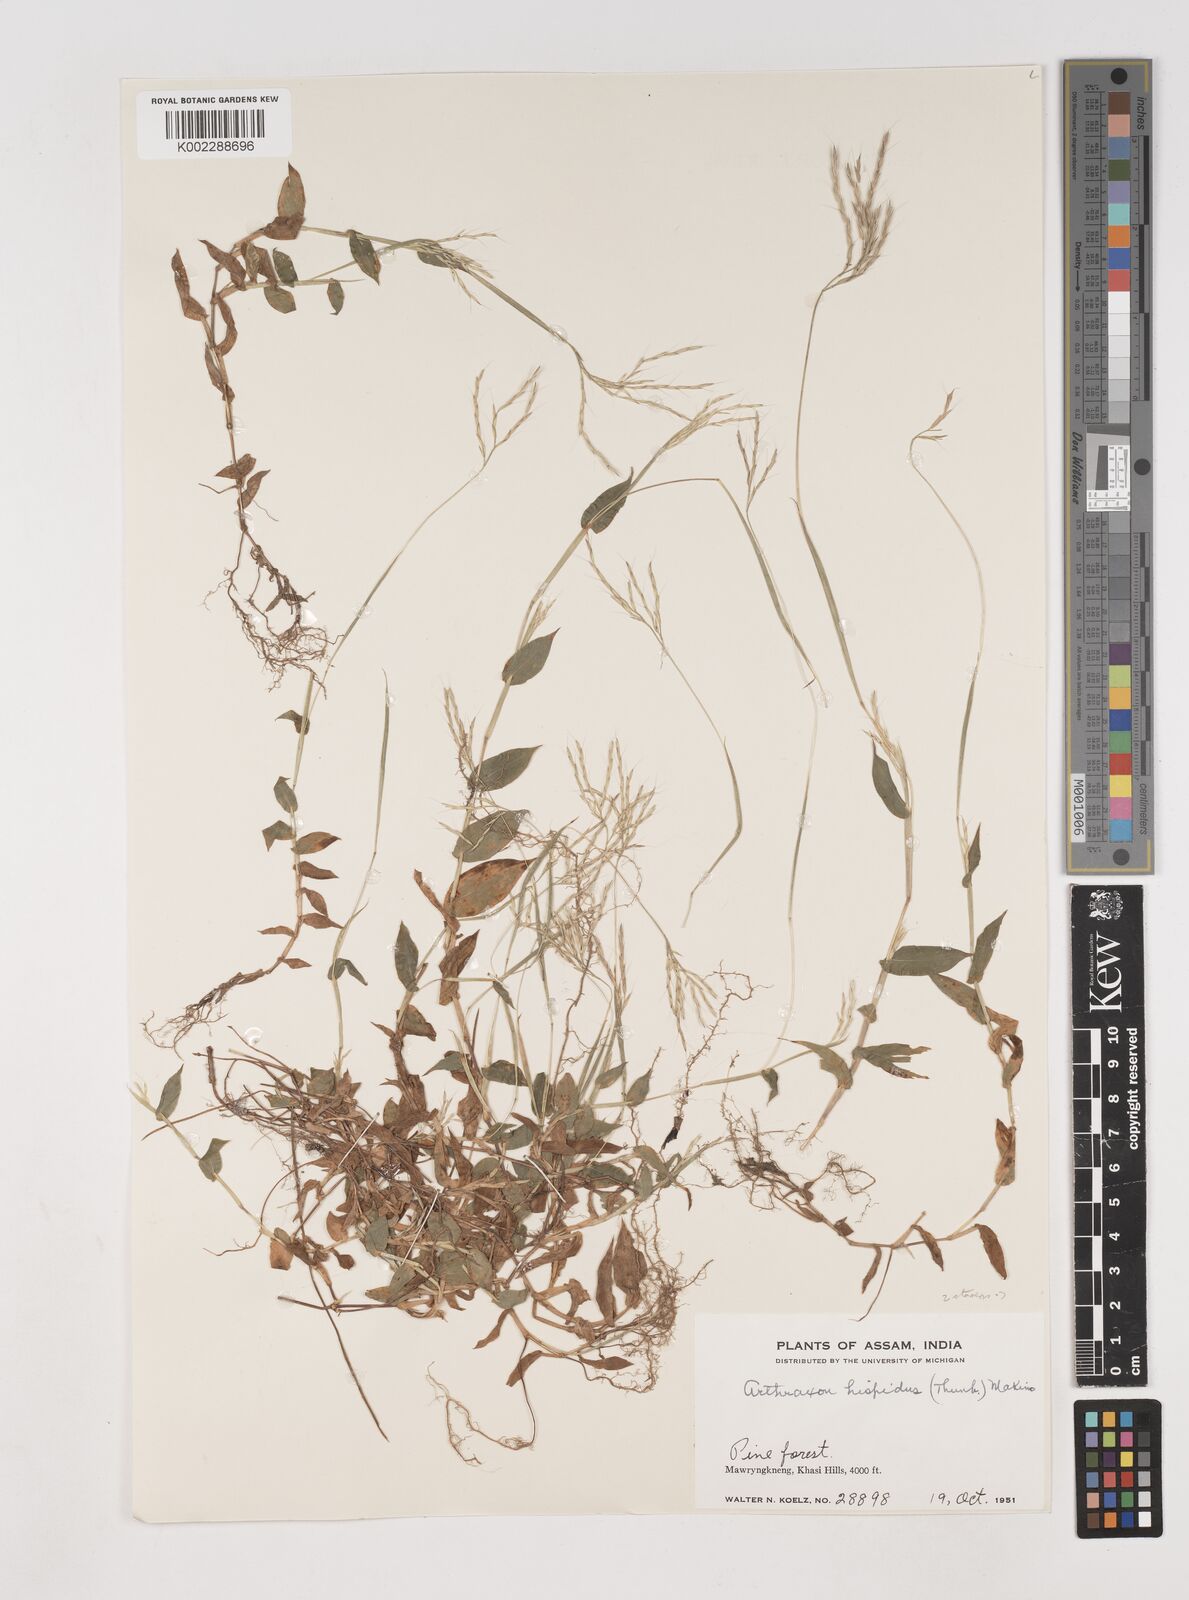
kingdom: Plantae
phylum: Tracheophyta
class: Liliopsida
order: Poales
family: Poaceae
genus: Arthraxon
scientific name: Arthraxon hispidus
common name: Small carpgrass
